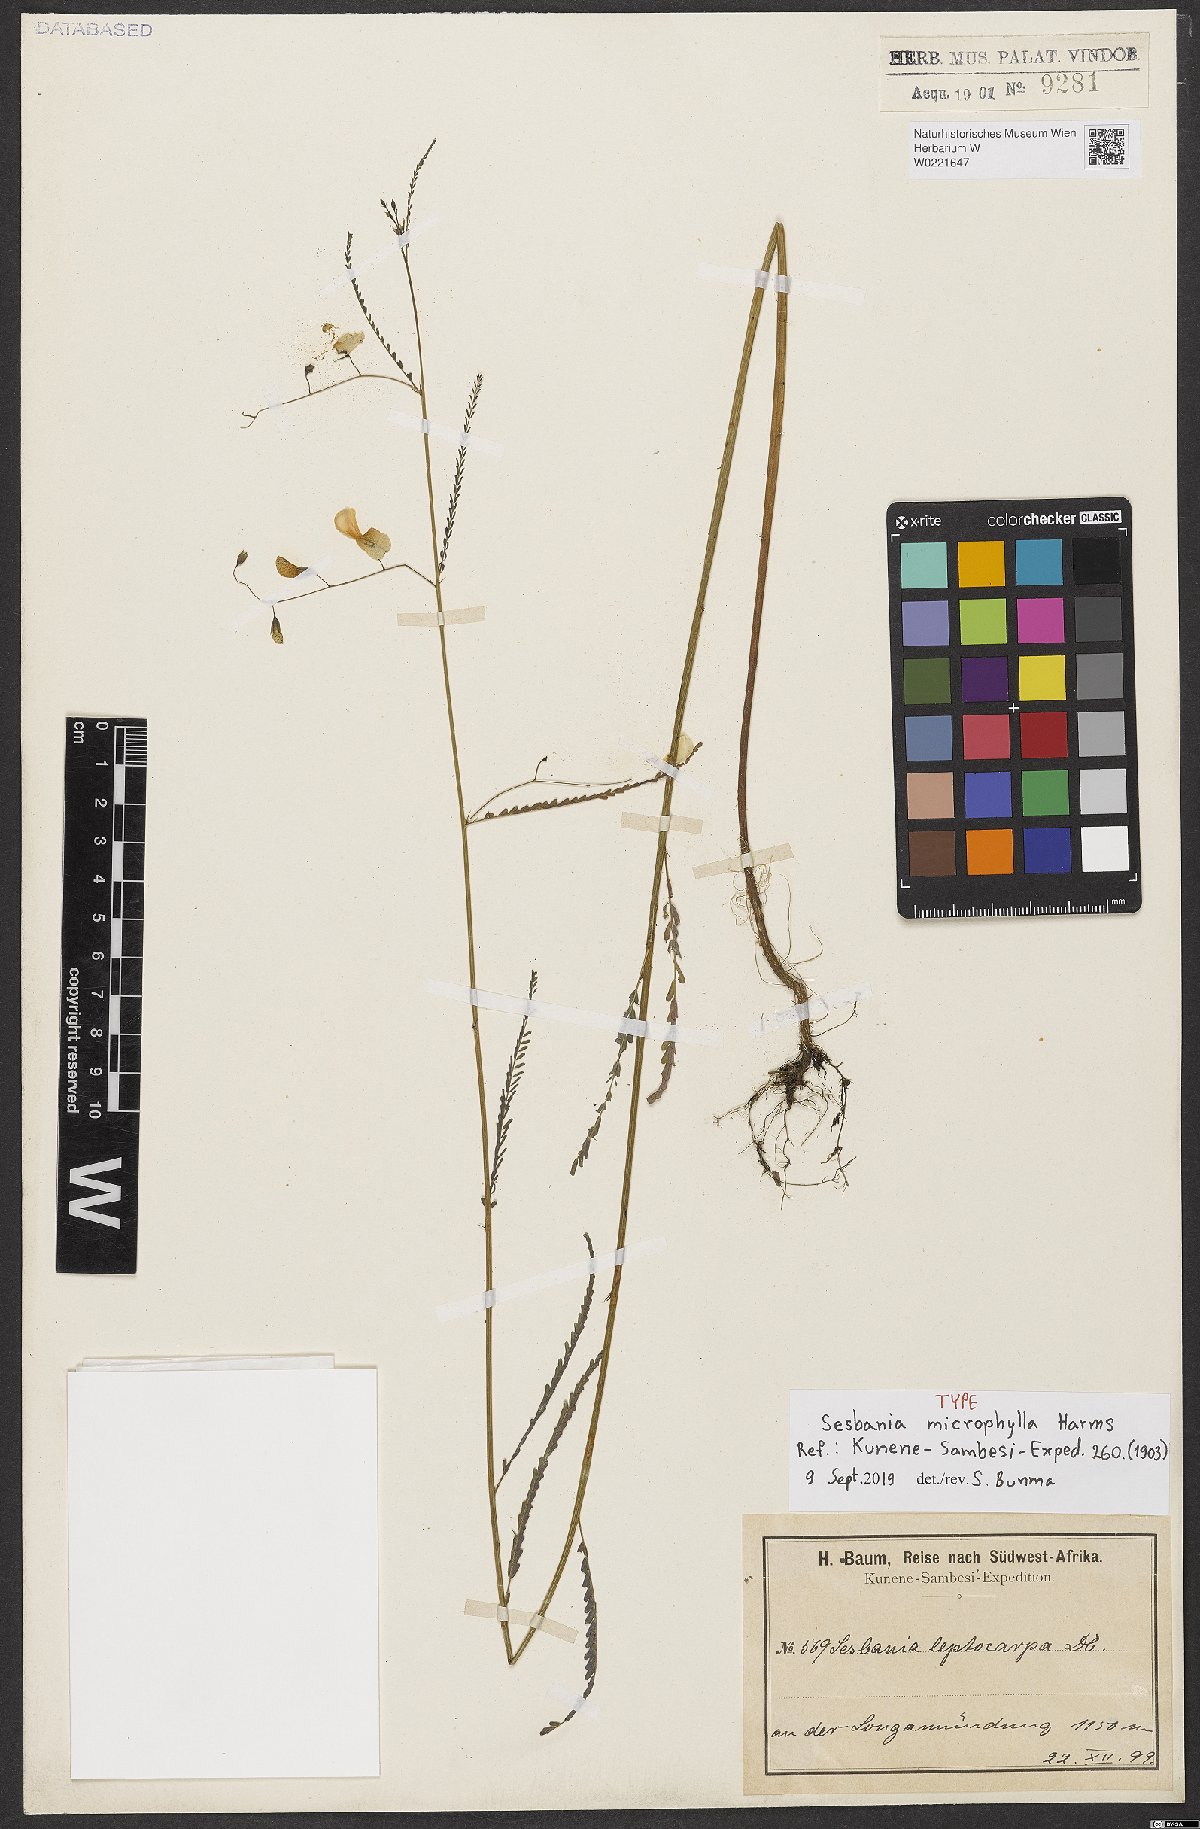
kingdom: Plantae
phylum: Tracheophyta
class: Magnoliopsida
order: Fabales
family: Fabaceae
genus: Sesbania
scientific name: Sesbania microphylla
